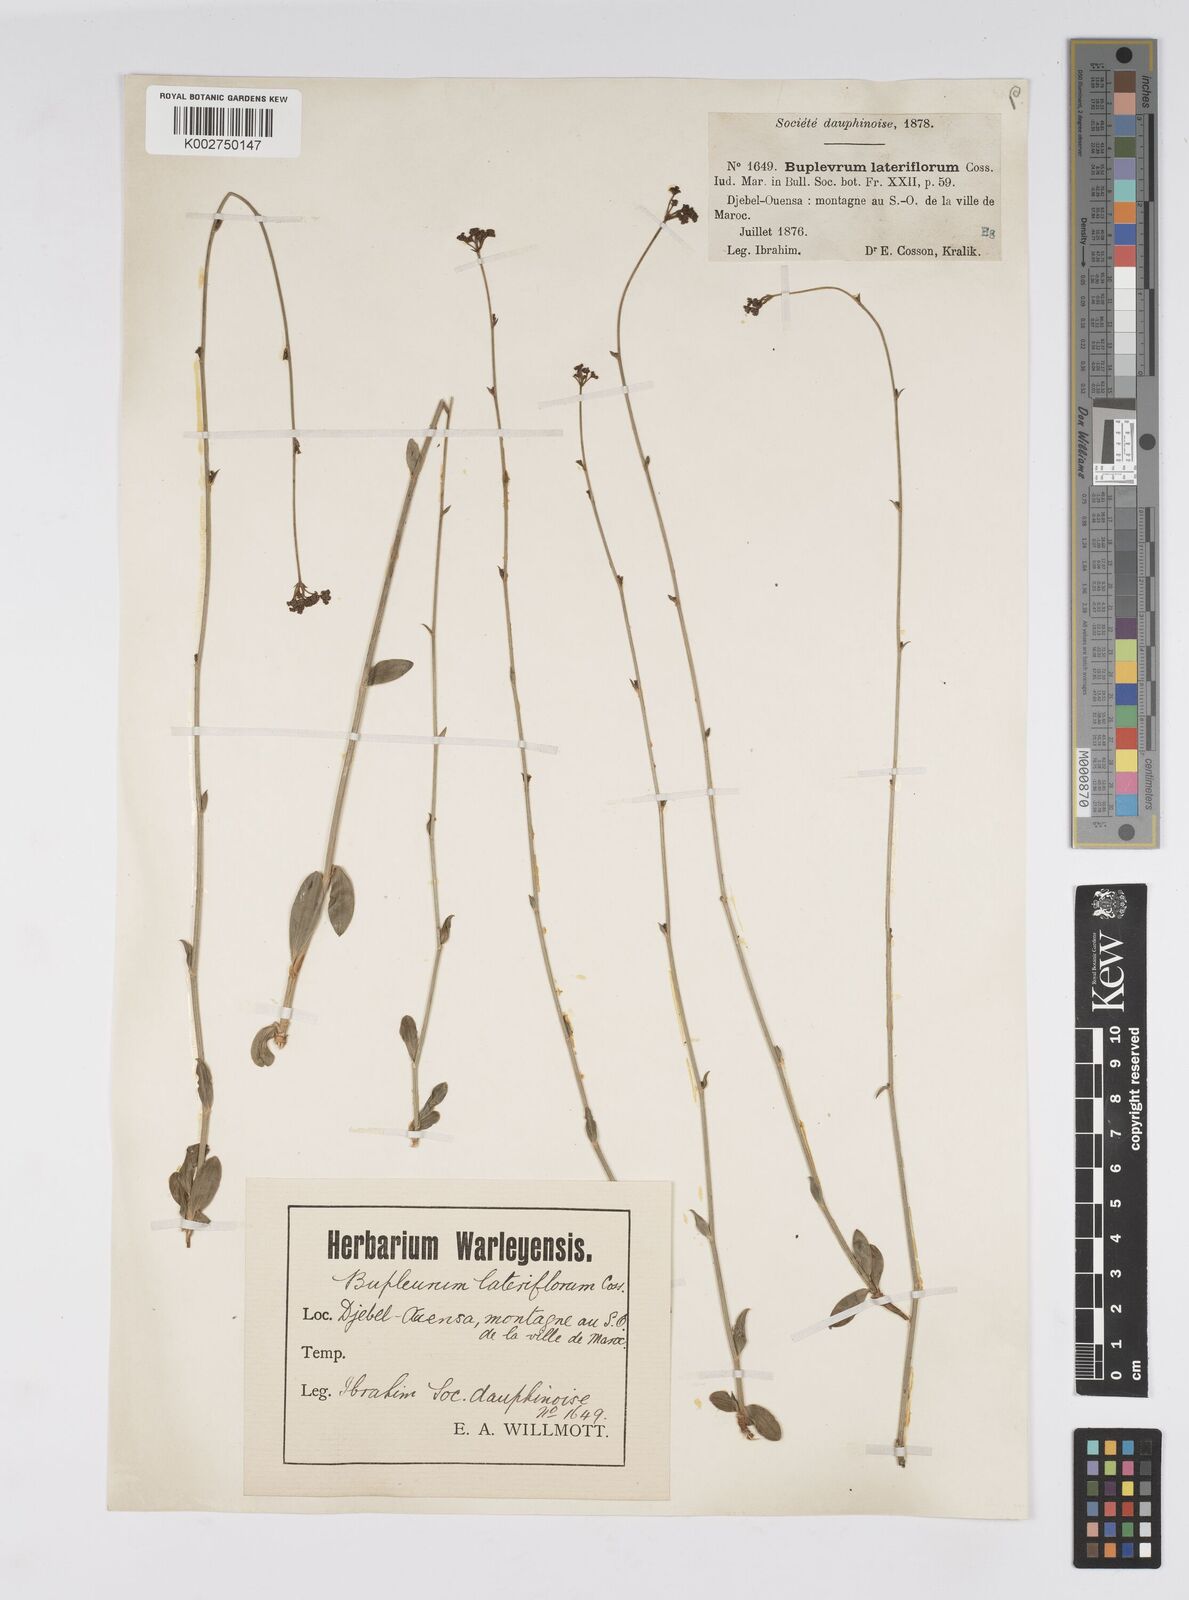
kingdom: Plantae
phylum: Tracheophyta
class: Magnoliopsida
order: Apiales
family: Apiaceae
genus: Bupleurum
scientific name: Bupleurum lateriflorum
